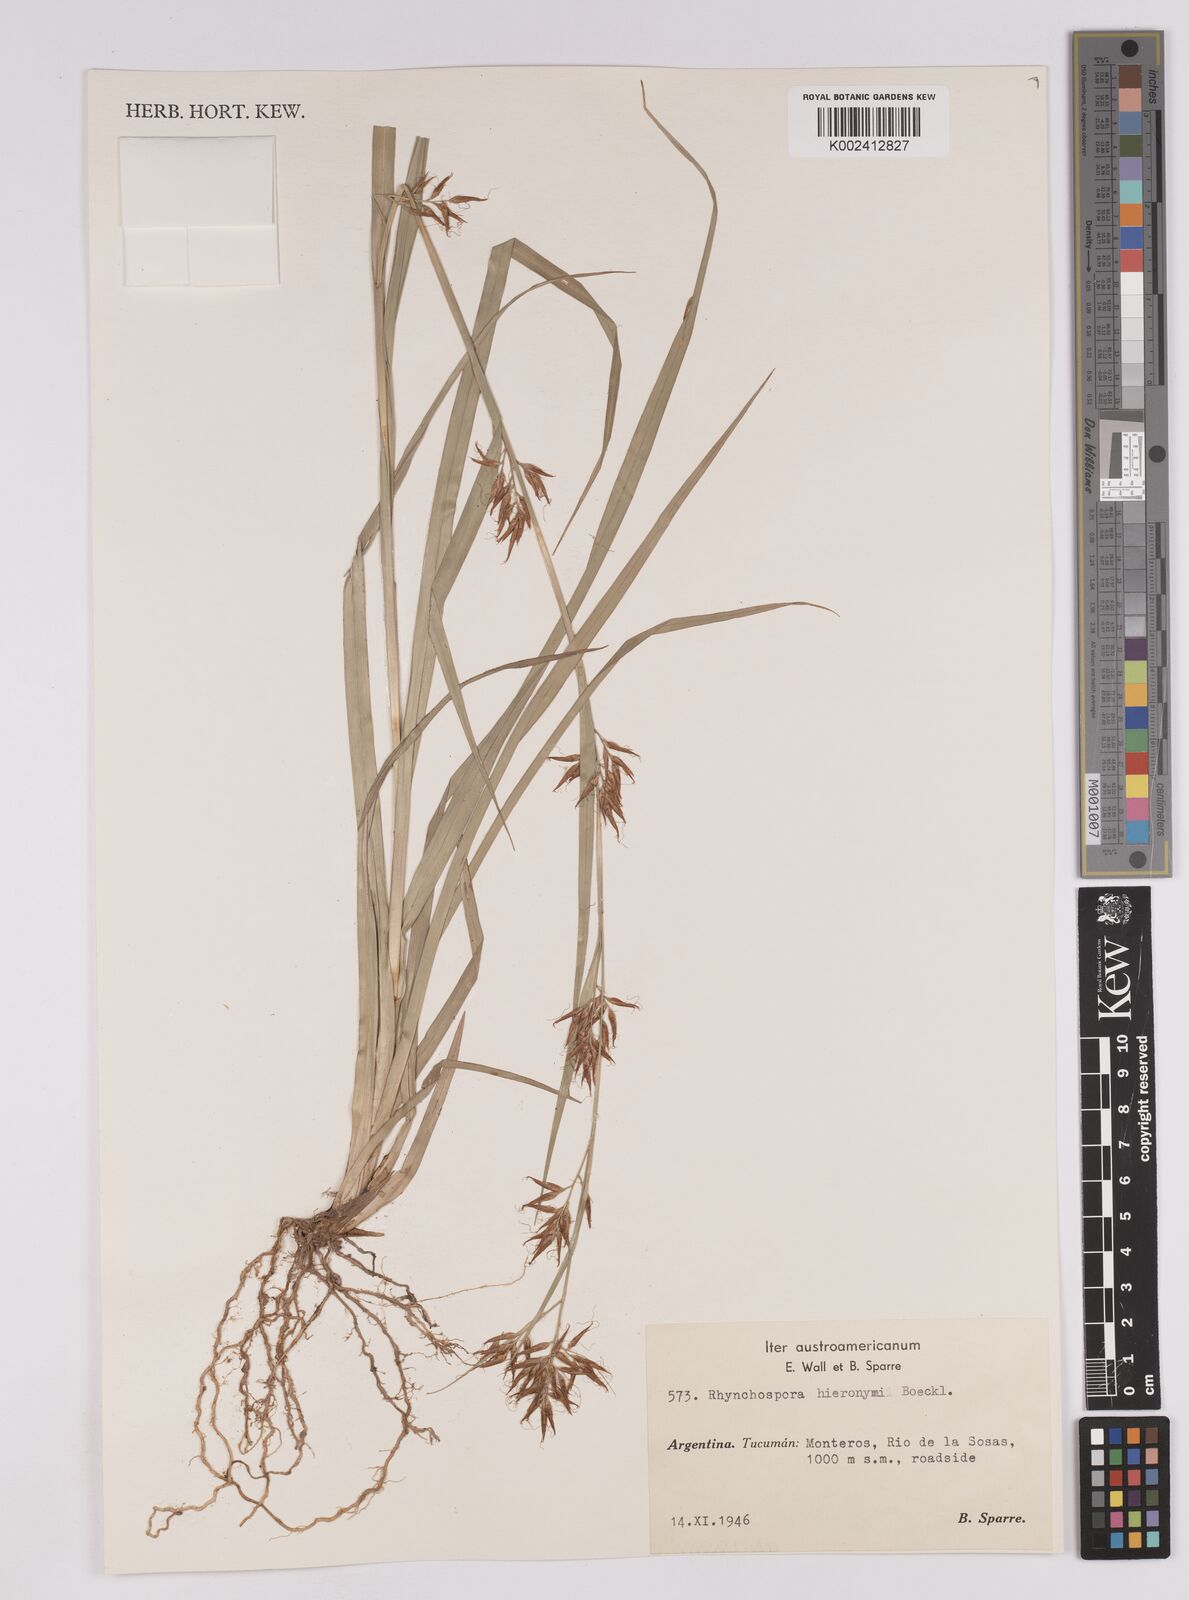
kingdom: Plantae
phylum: Tracheophyta
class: Liliopsida
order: Poales
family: Cyperaceae
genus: Rhynchospora
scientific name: Rhynchospora hieronymi
